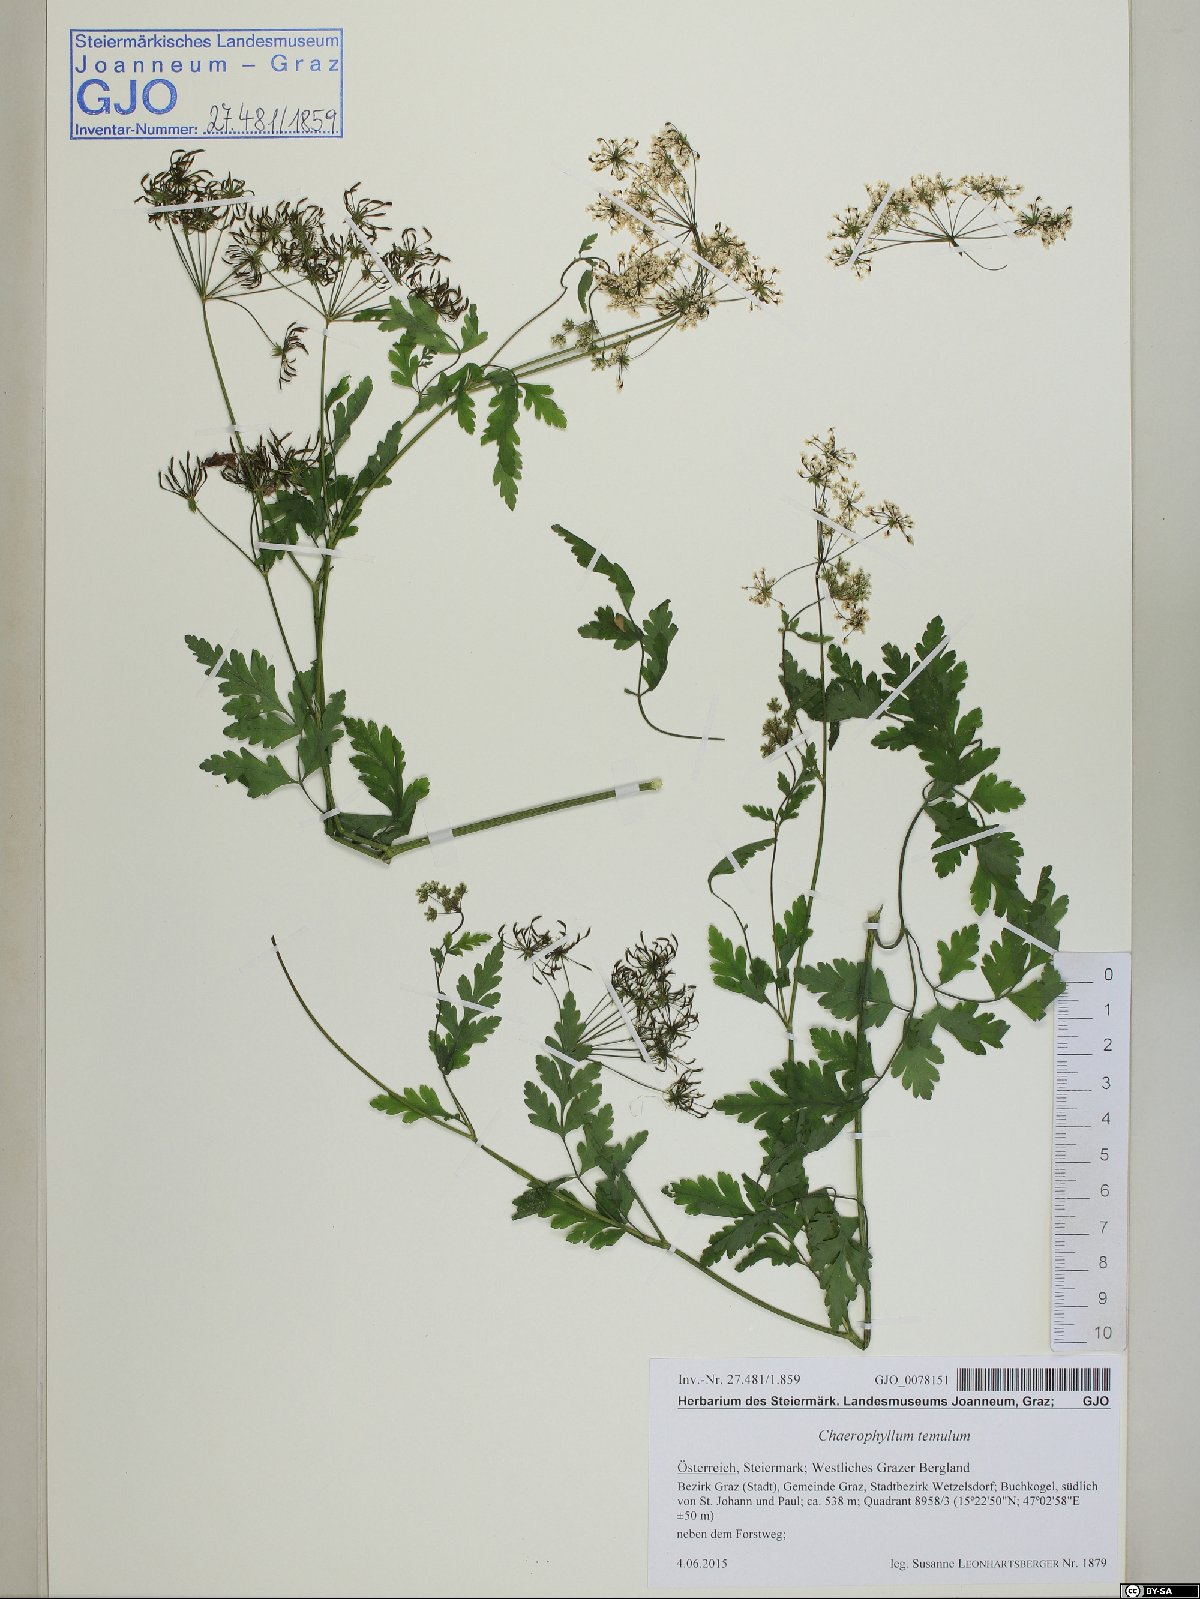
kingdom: Plantae
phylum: Tracheophyta
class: Magnoliopsida
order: Apiales
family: Apiaceae
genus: Chaerophyllum
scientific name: Chaerophyllum temulum
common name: Rough chervil
